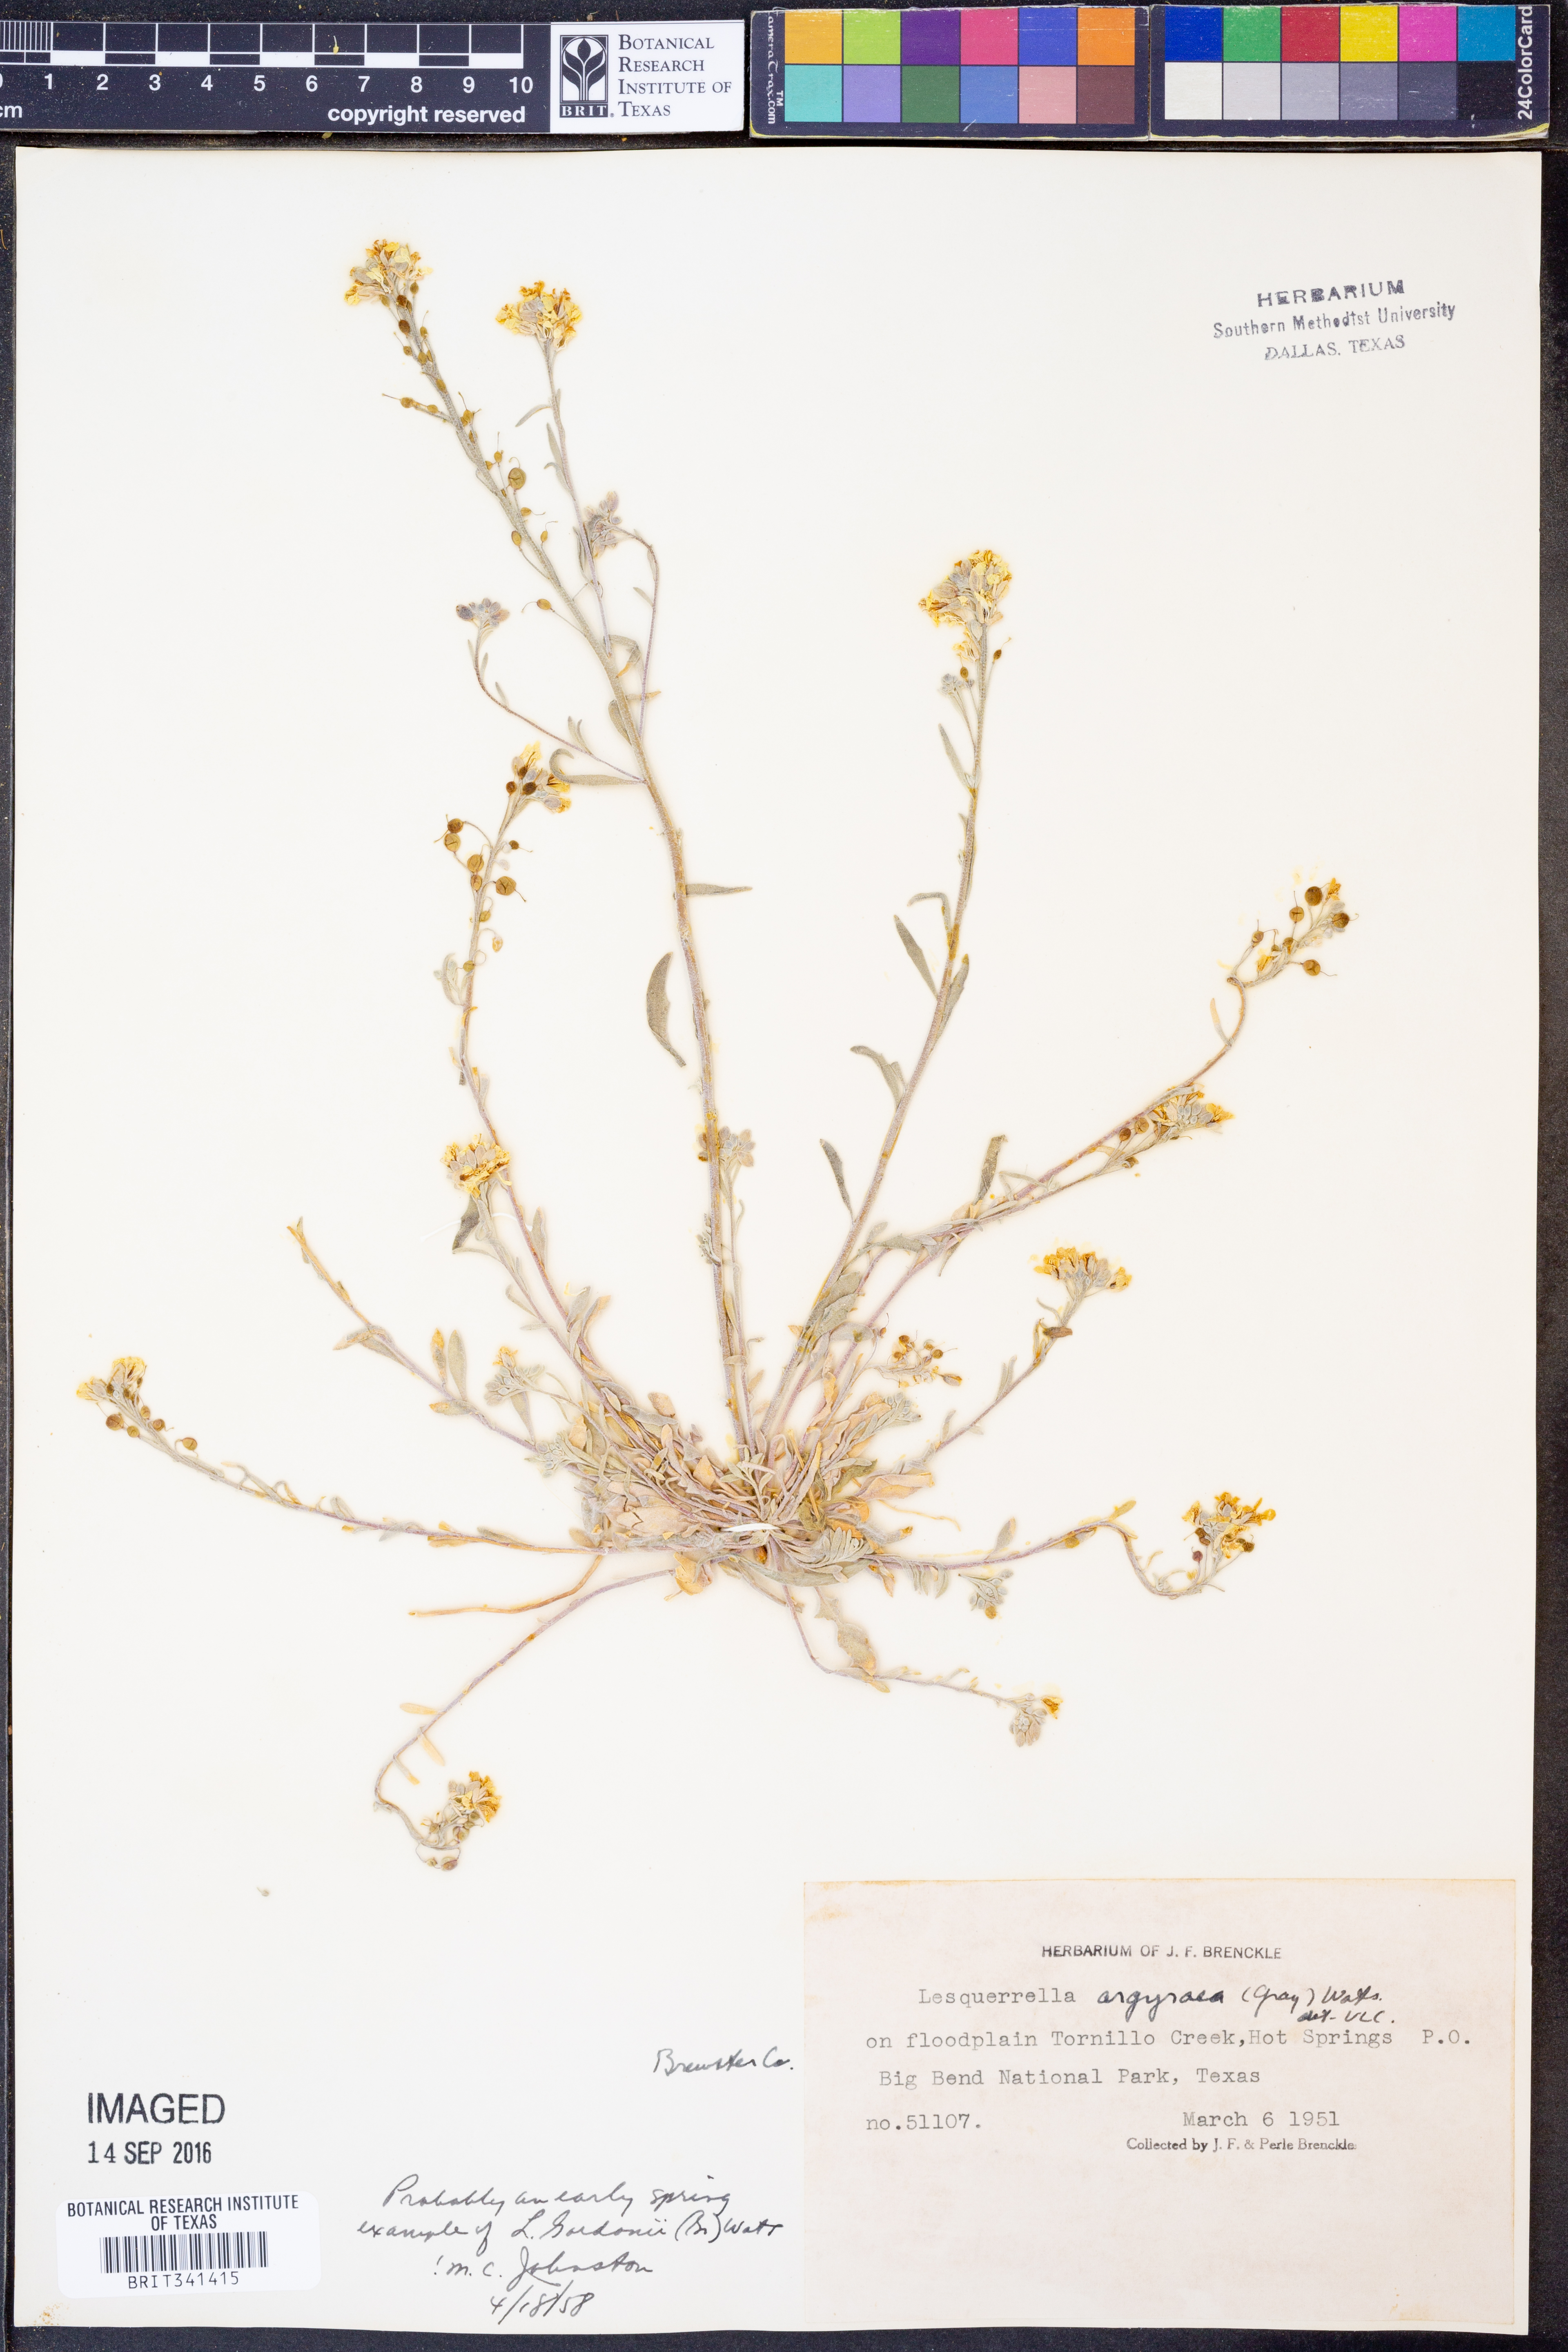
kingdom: Plantae
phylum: Tracheophyta
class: Magnoliopsida
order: Brassicales
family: Brassicaceae
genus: Physaria
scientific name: Physaria gordonii
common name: Gordon's bladderpod
